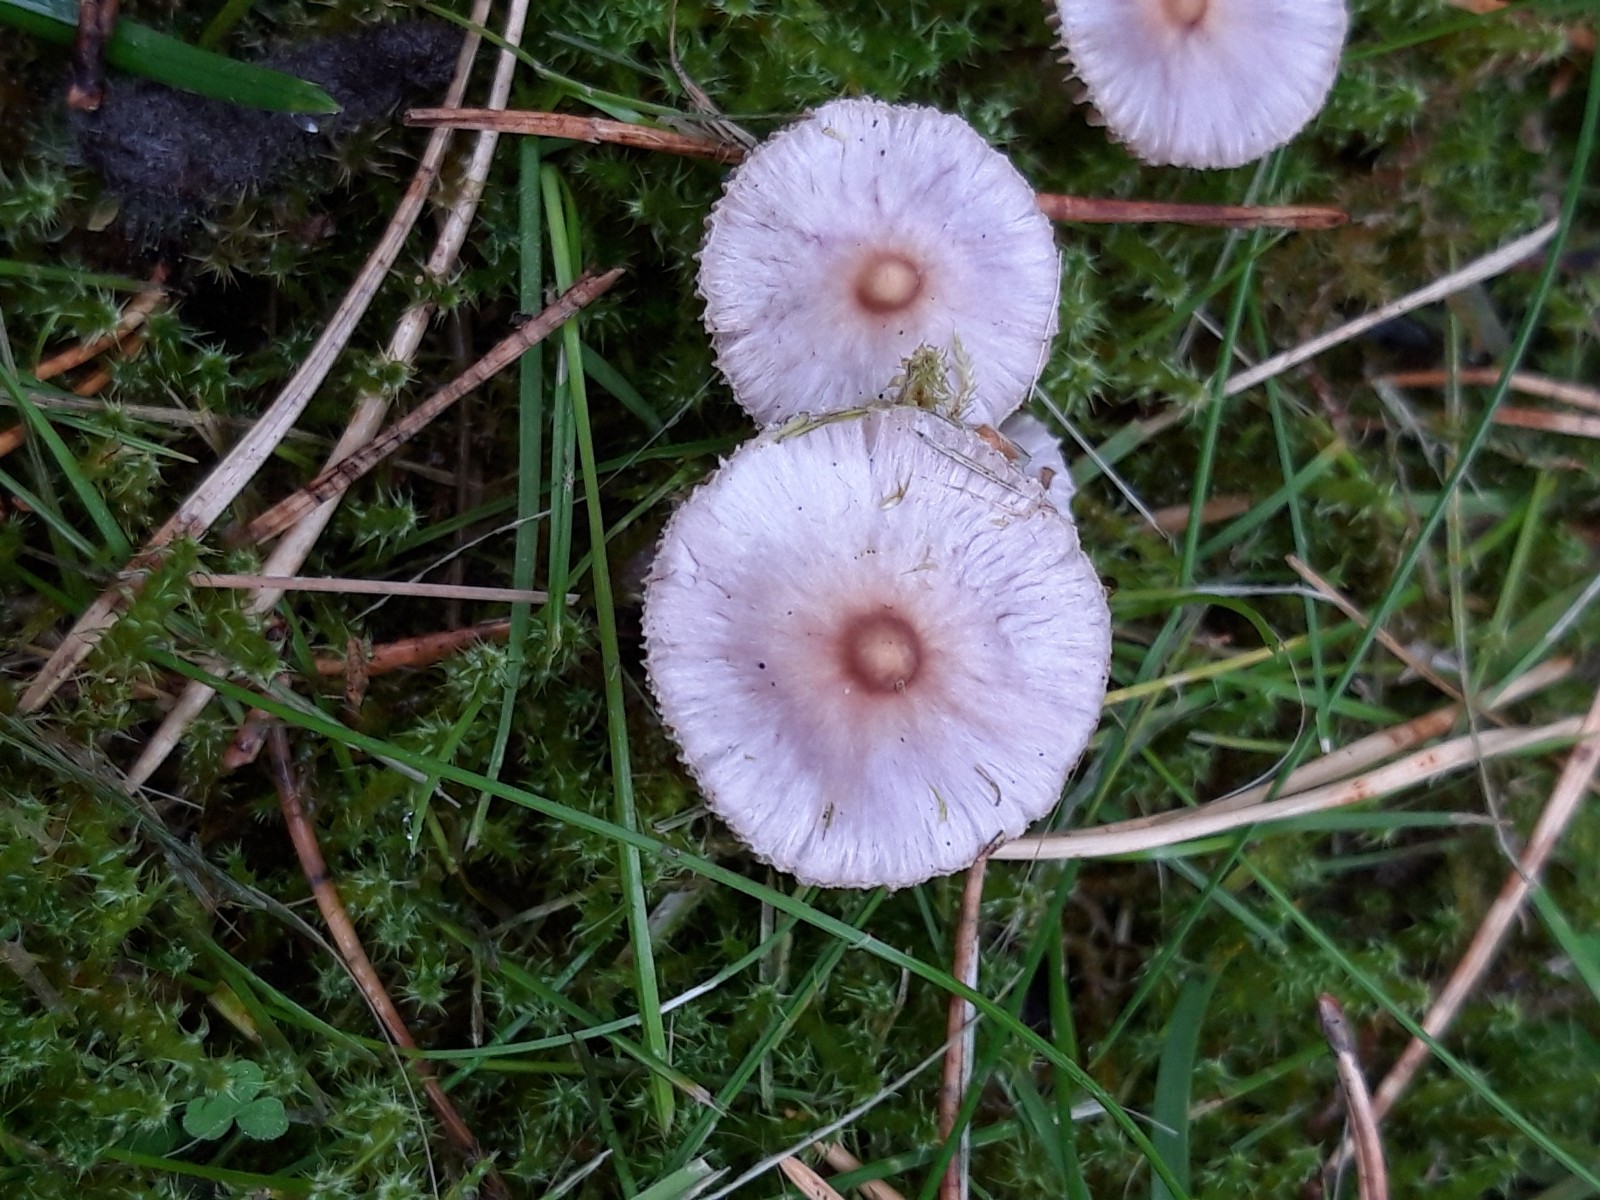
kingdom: Fungi
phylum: Basidiomycota
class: Agaricomycetes
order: Agaricales
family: Inocybaceae
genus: Inocybe
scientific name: Inocybe geophylla
